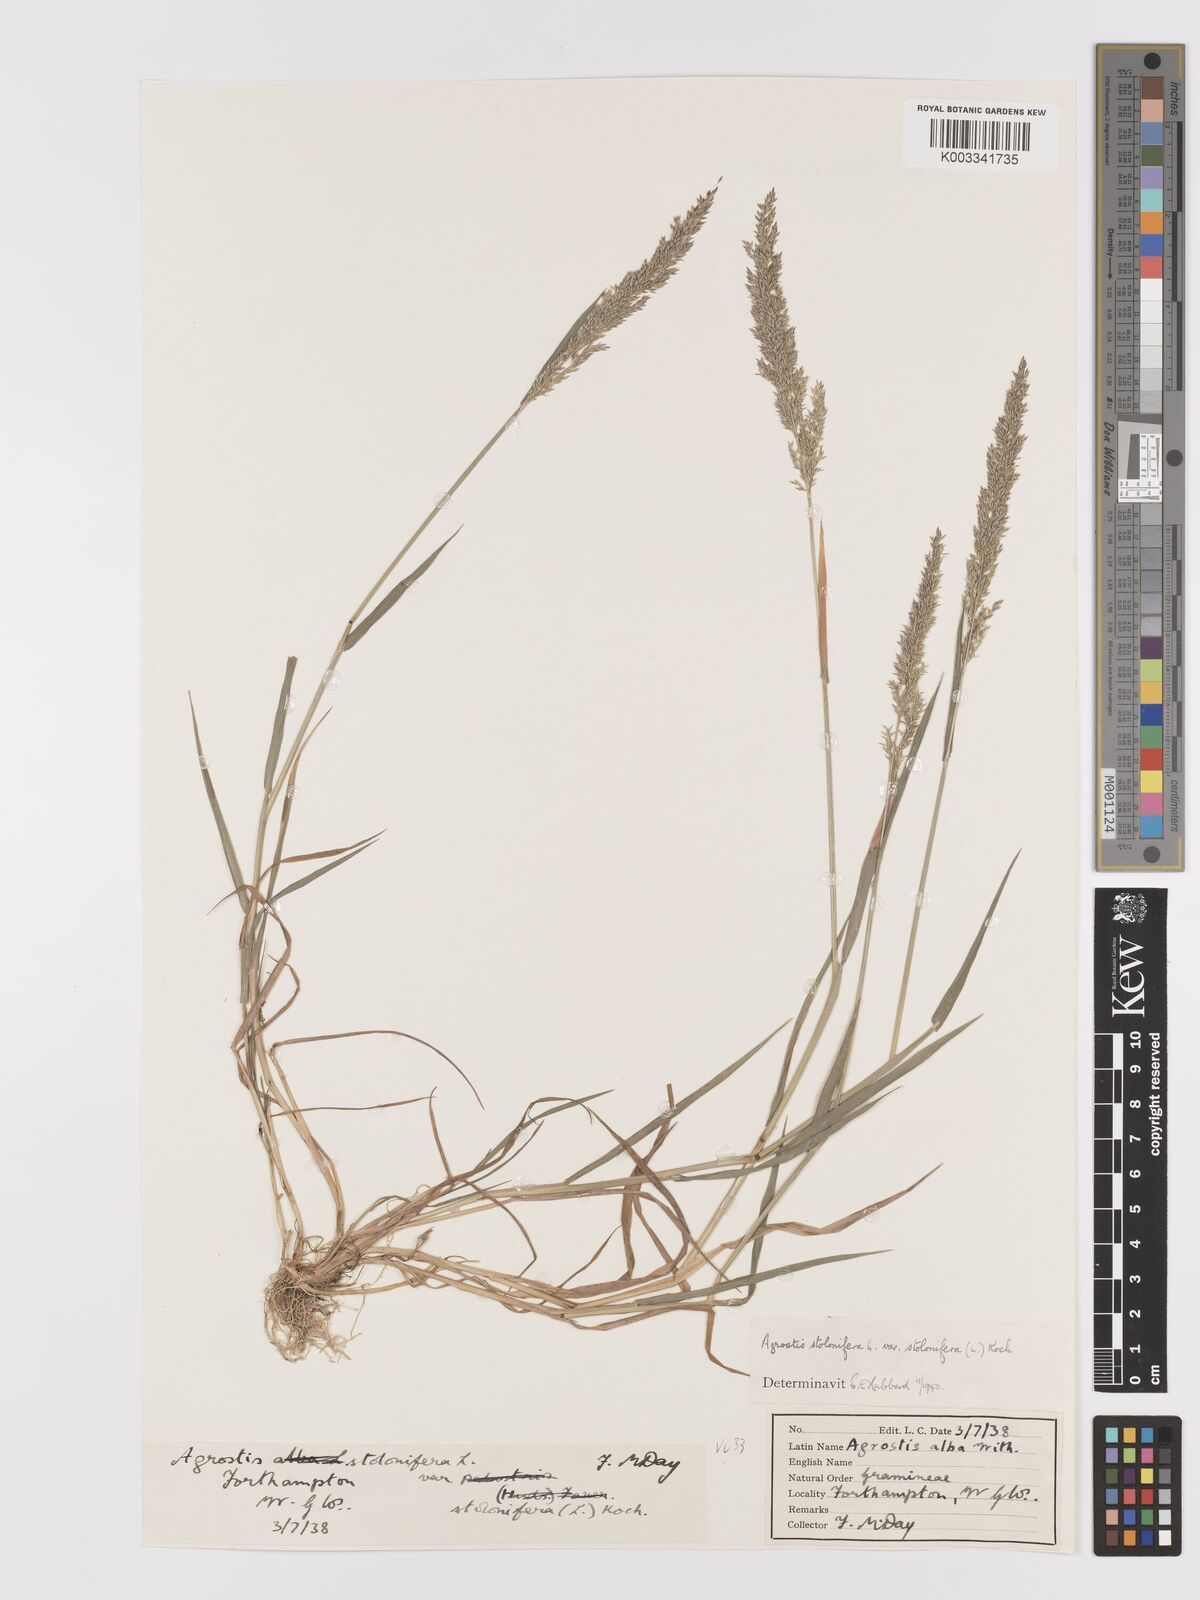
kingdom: Plantae
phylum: Tracheophyta
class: Liliopsida
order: Poales
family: Poaceae
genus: Agrostis
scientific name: Agrostis stolonifera
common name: Creeping bentgrass
